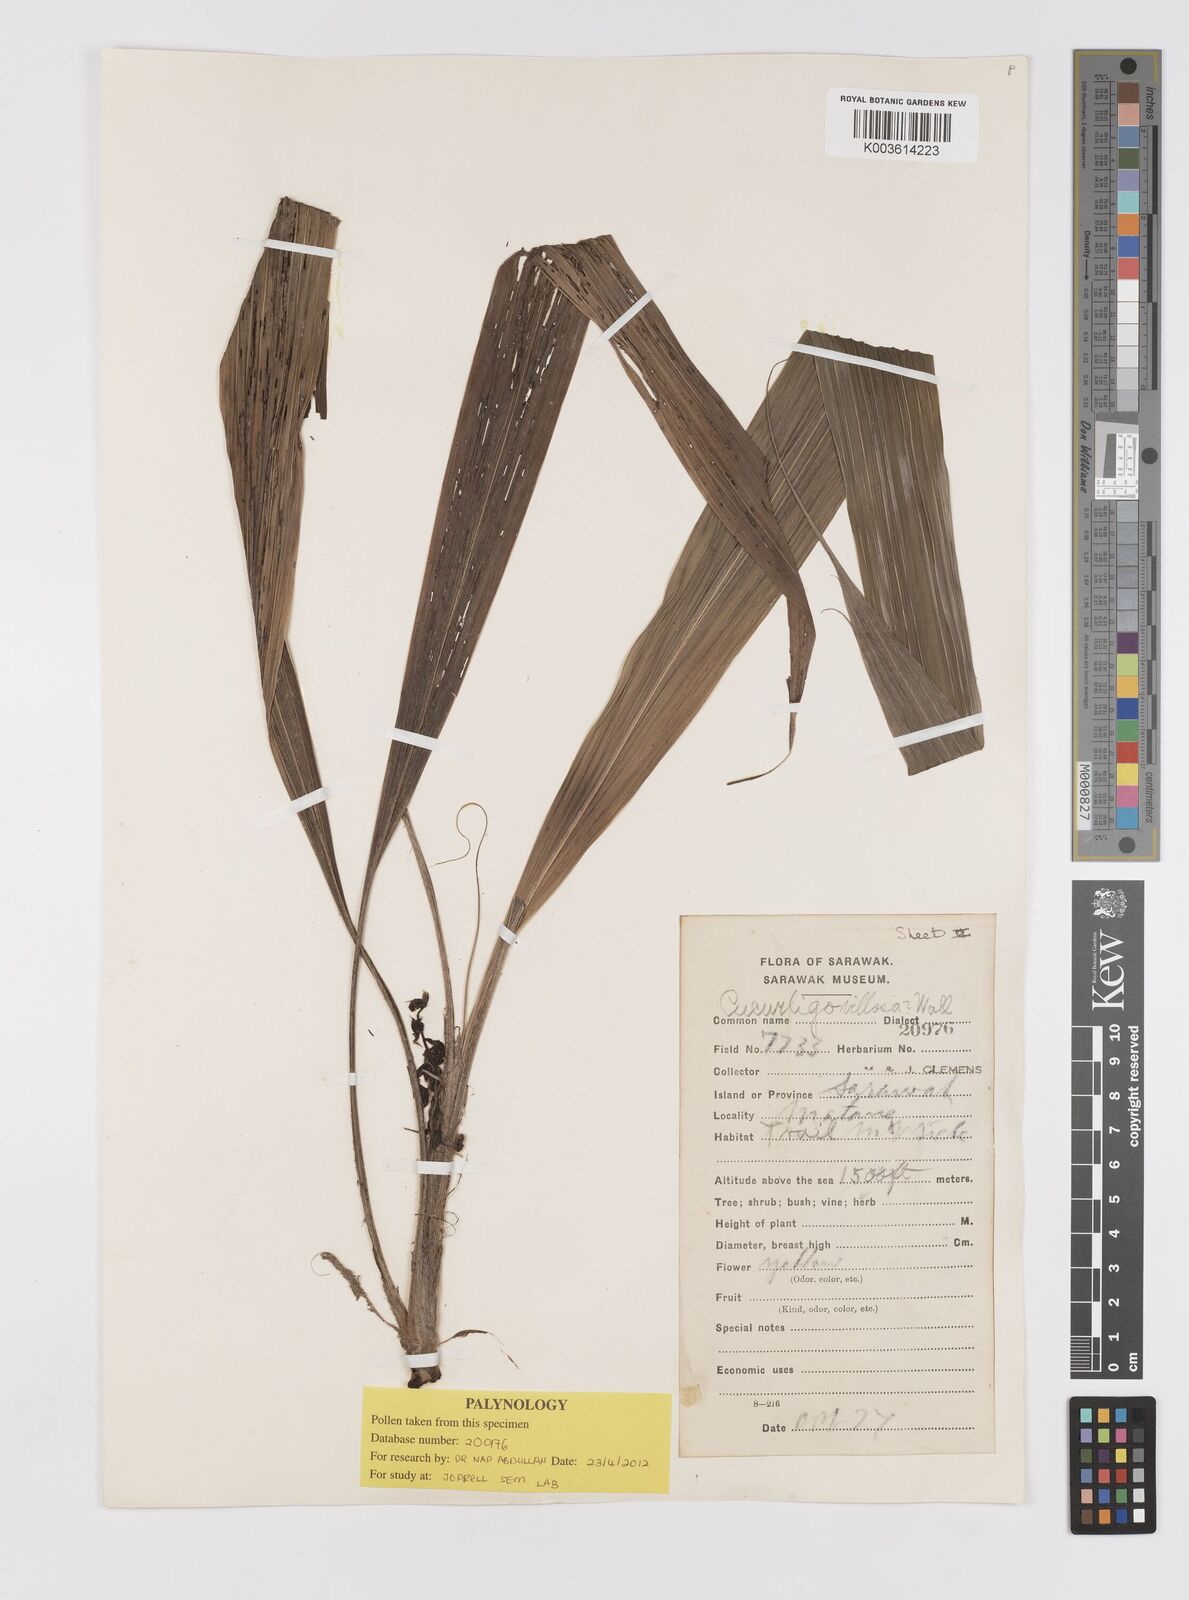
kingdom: Plantae
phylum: Tracheophyta
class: Liliopsida
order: Asparagales
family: Hypoxidaceae
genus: Curculigo
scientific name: Curculigo
